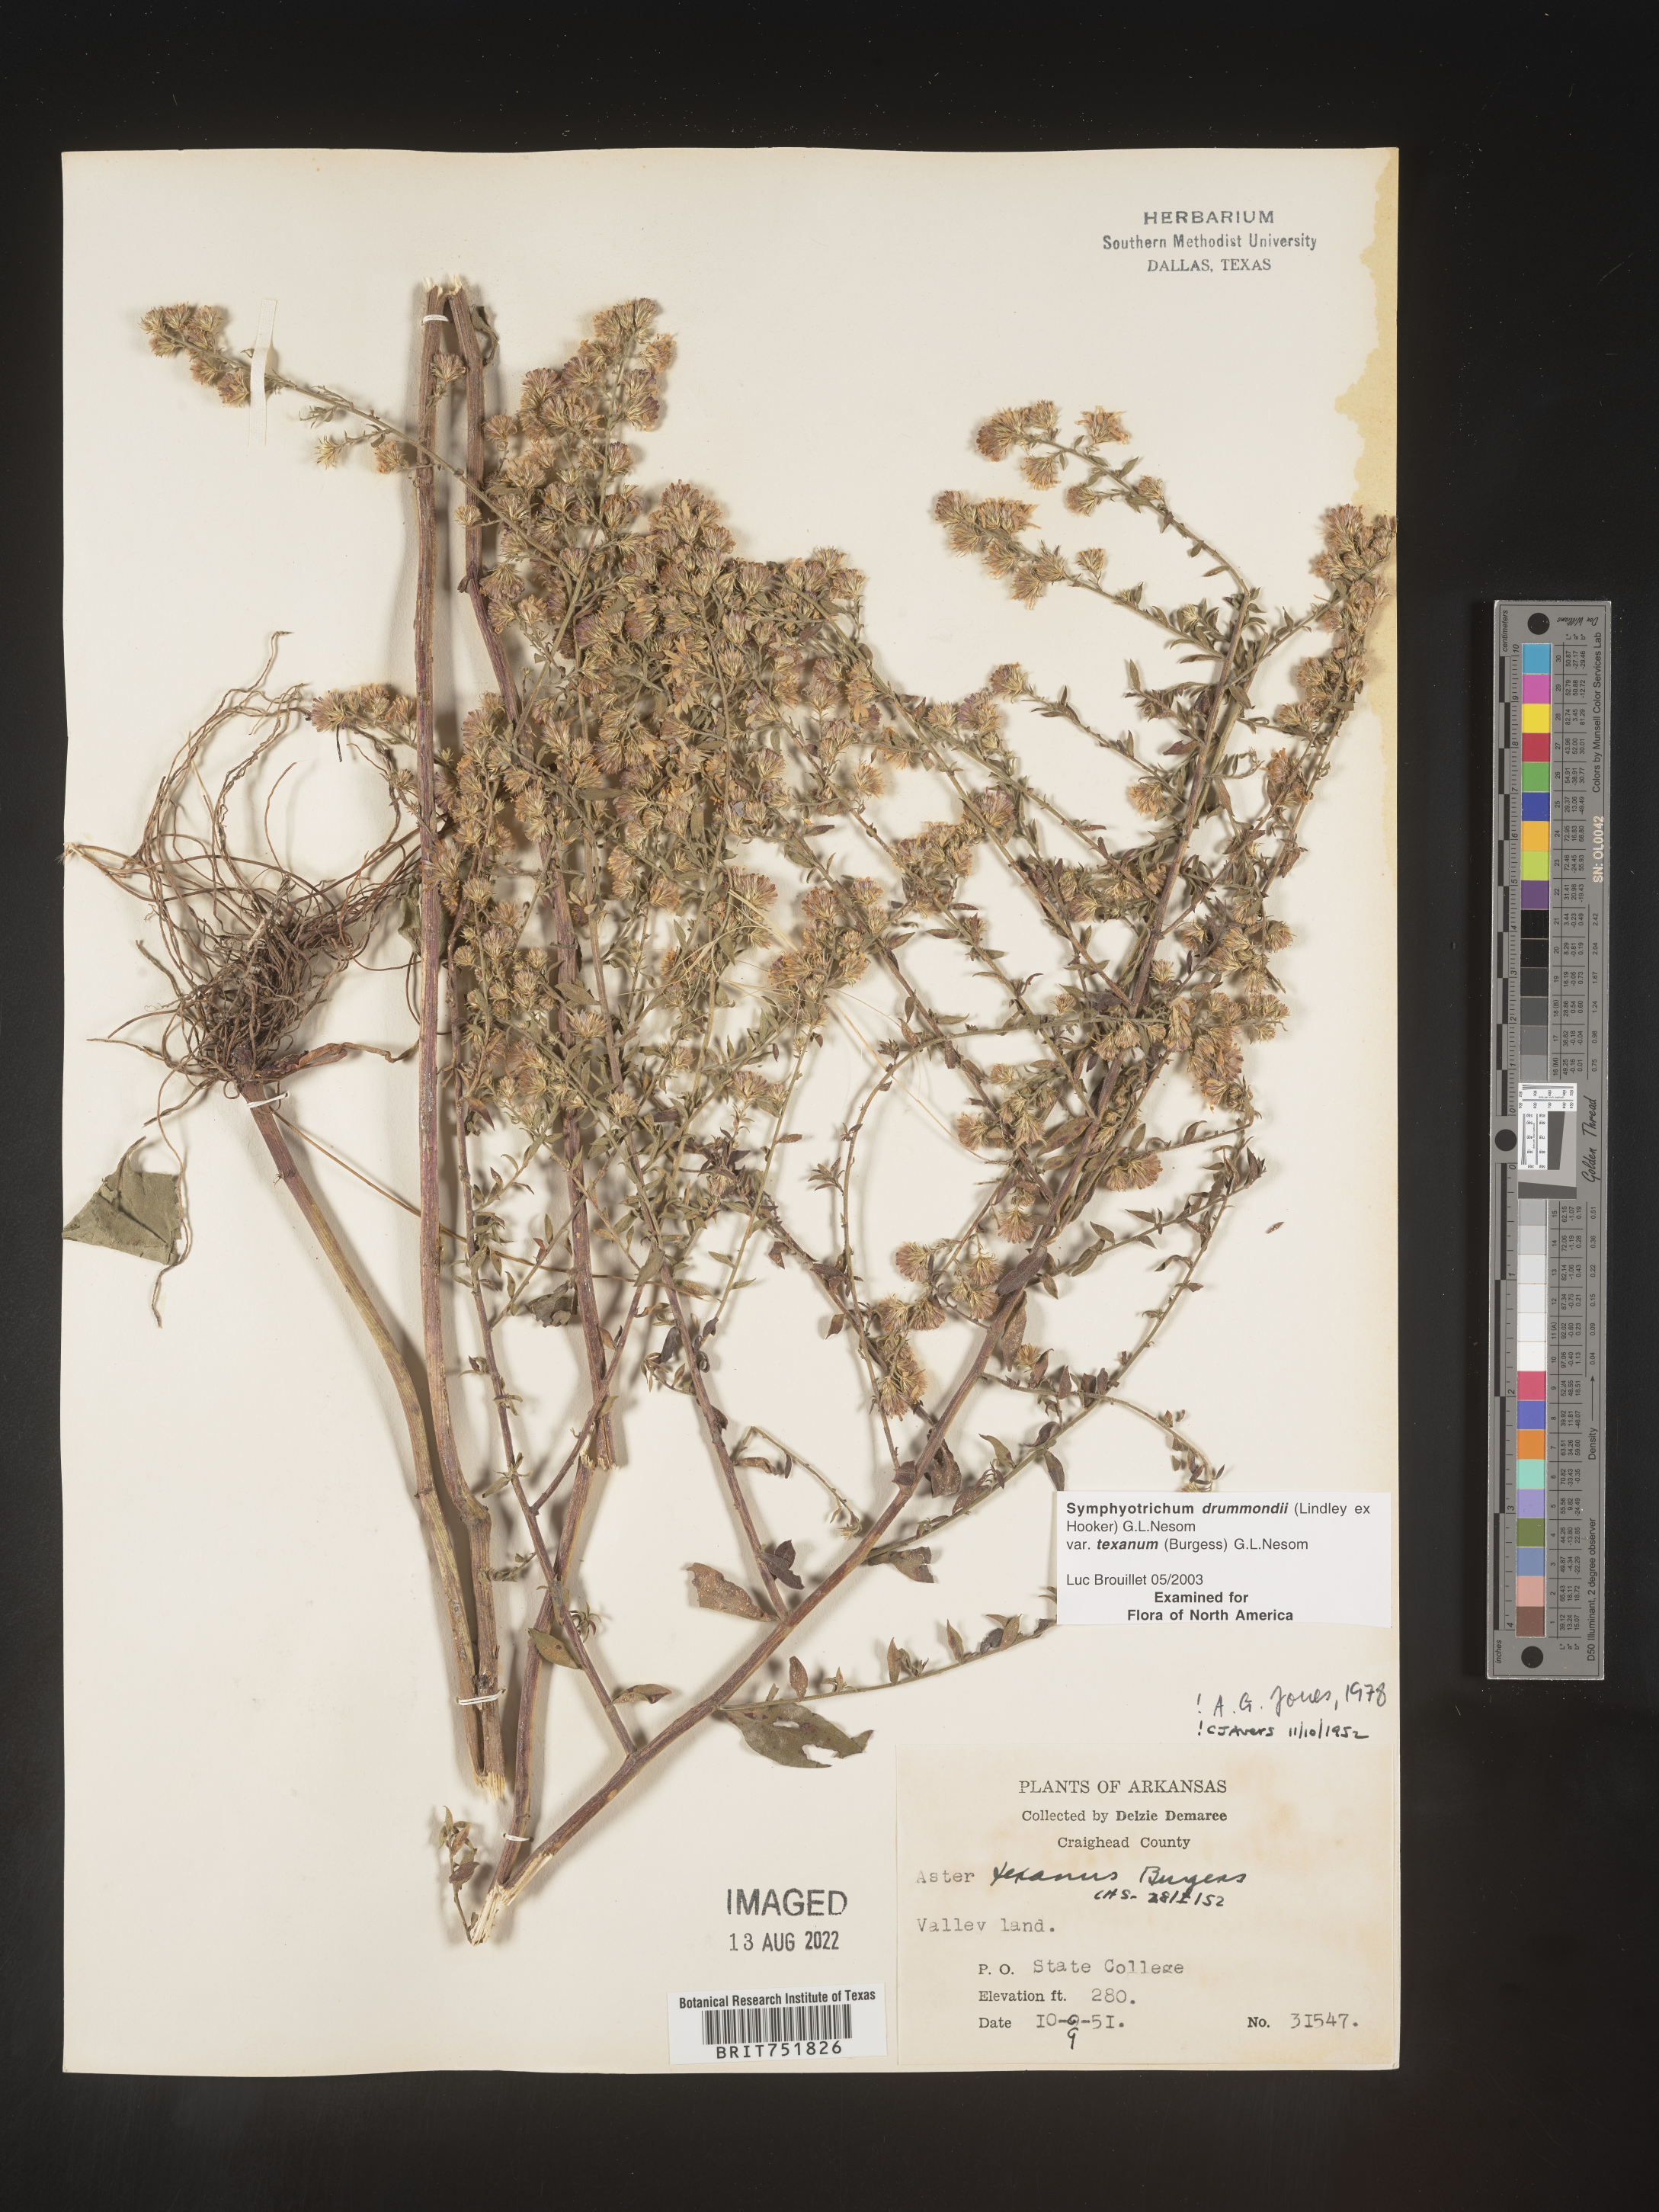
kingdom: Plantae
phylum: Tracheophyta
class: Magnoliopsida
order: Asterales
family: Asteraceae
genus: Symphyotrichum
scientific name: Symphyotrichum drummondii
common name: Drummond's aster
